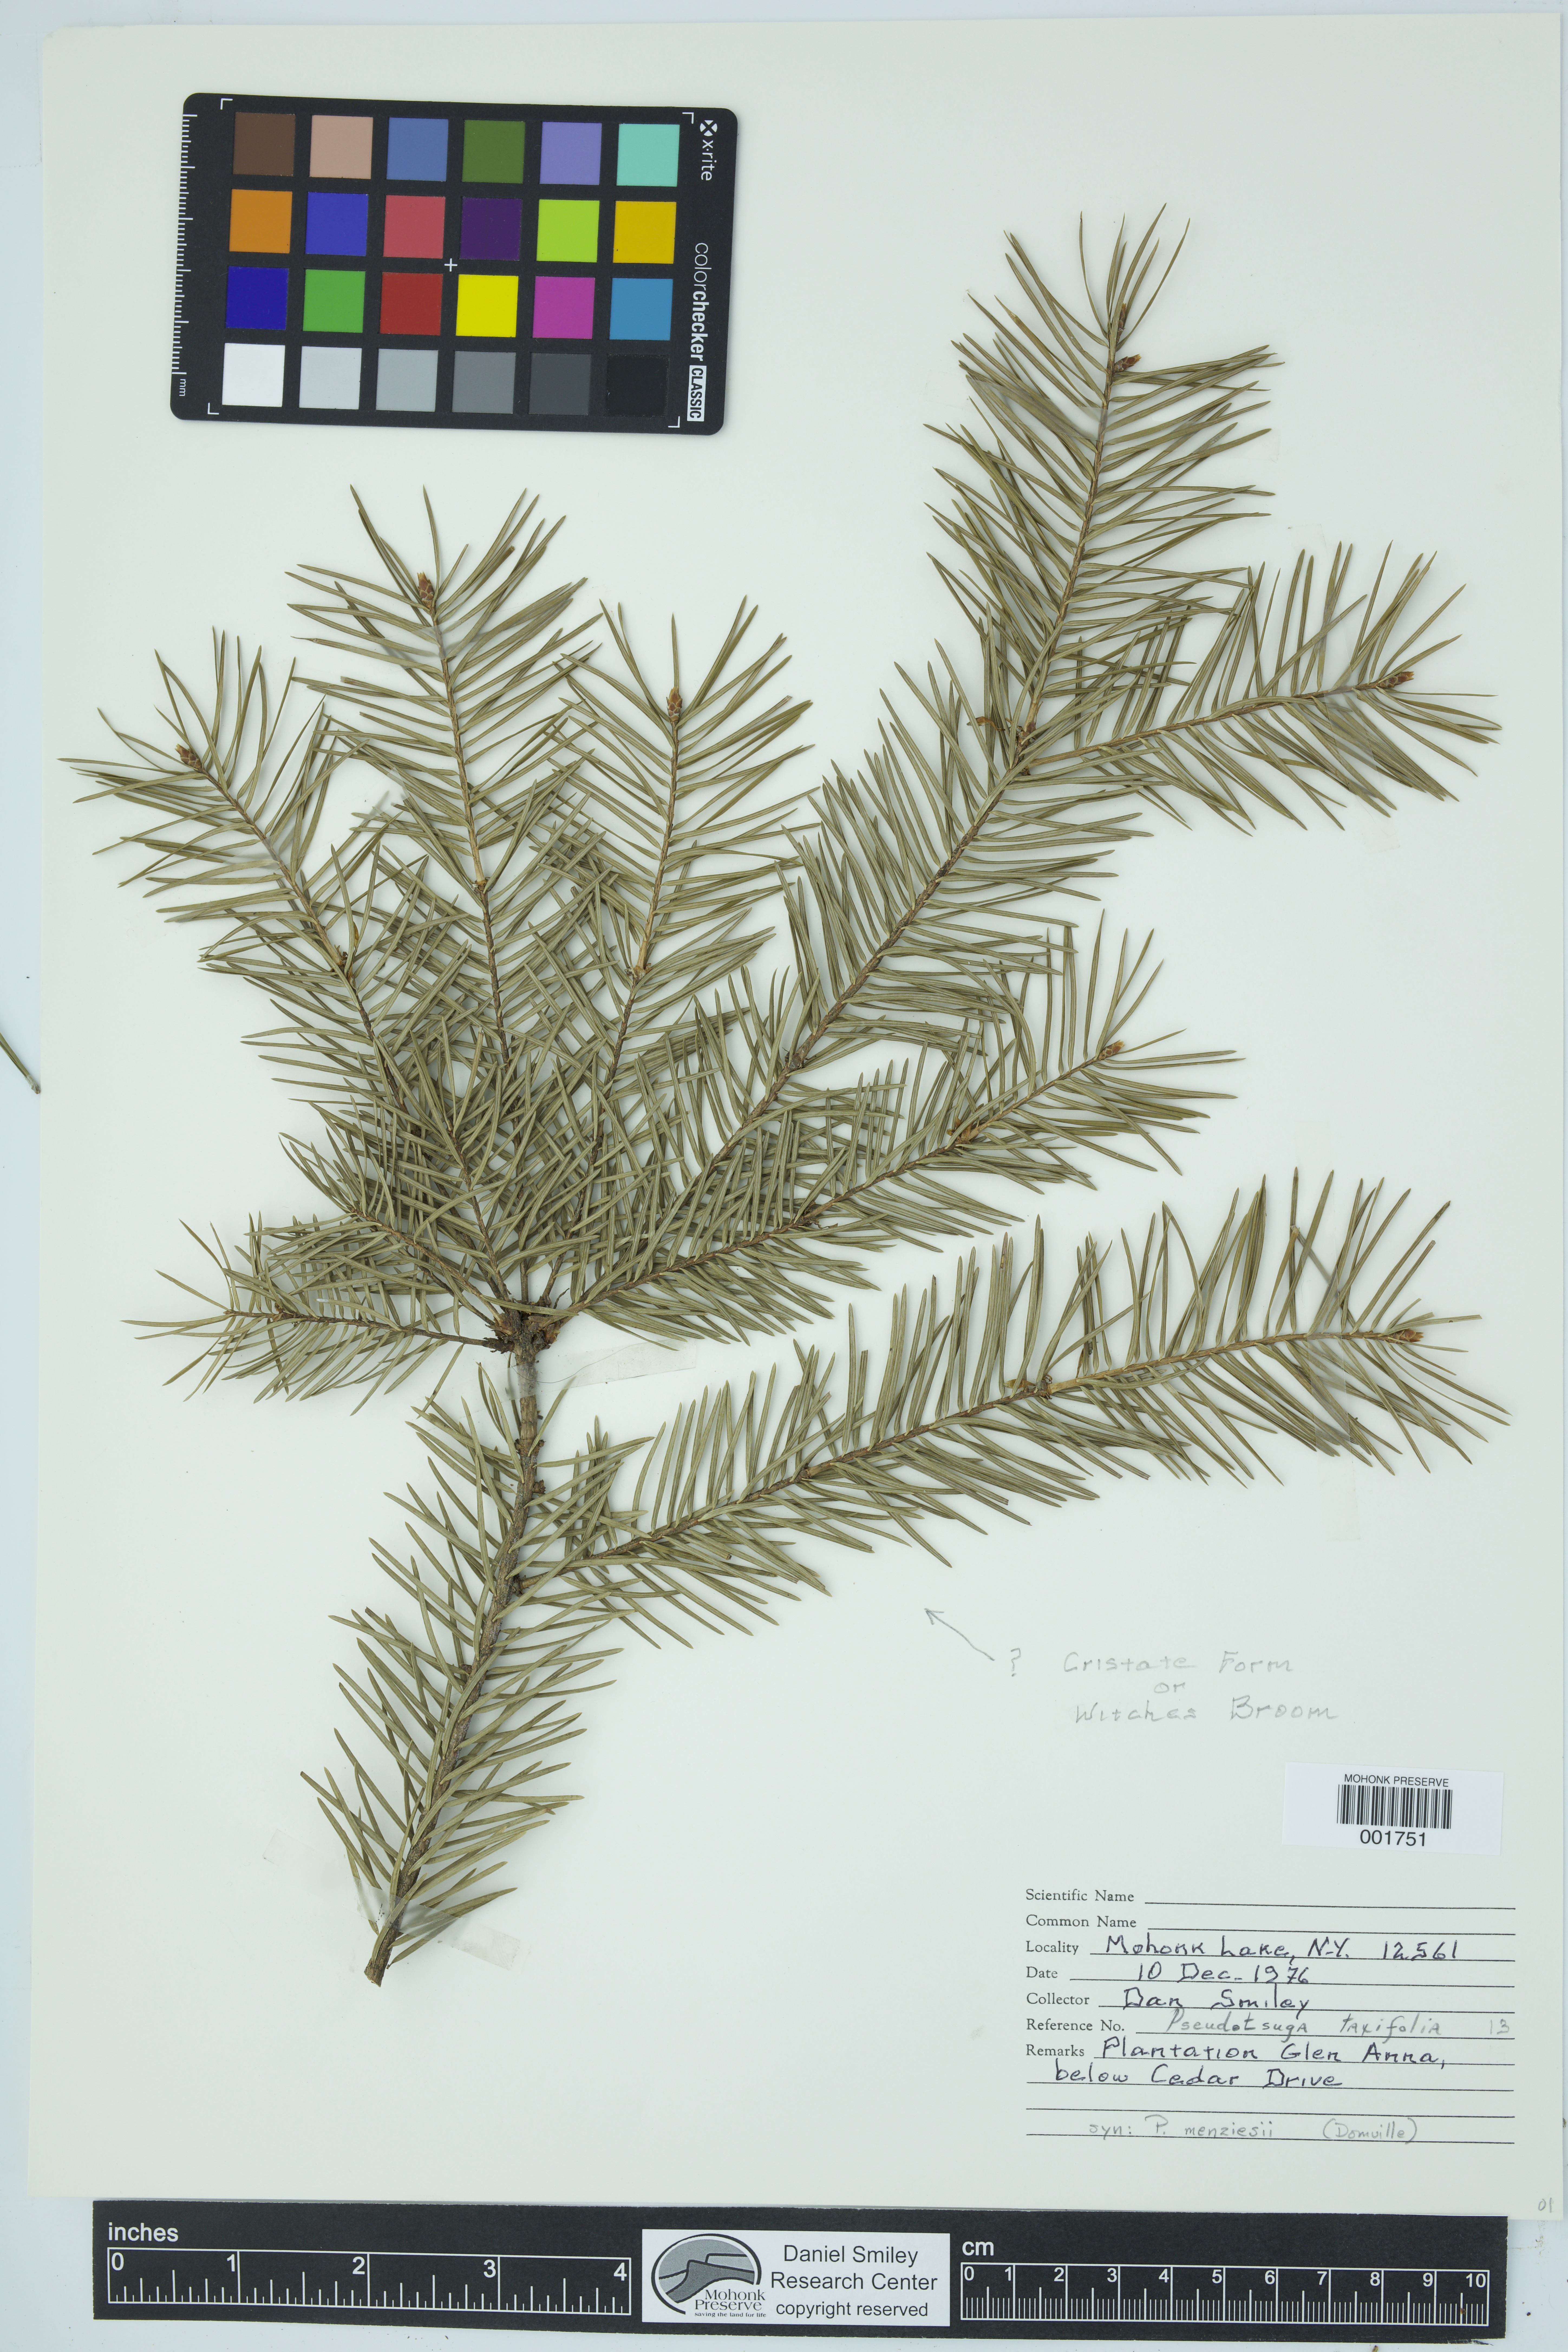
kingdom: Plantae
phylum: Tracheophyta
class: Pinopsida
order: Pinales
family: Pinaceae
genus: Pseudotsuga
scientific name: Pseudotsuga menziesii
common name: Douglas fir
